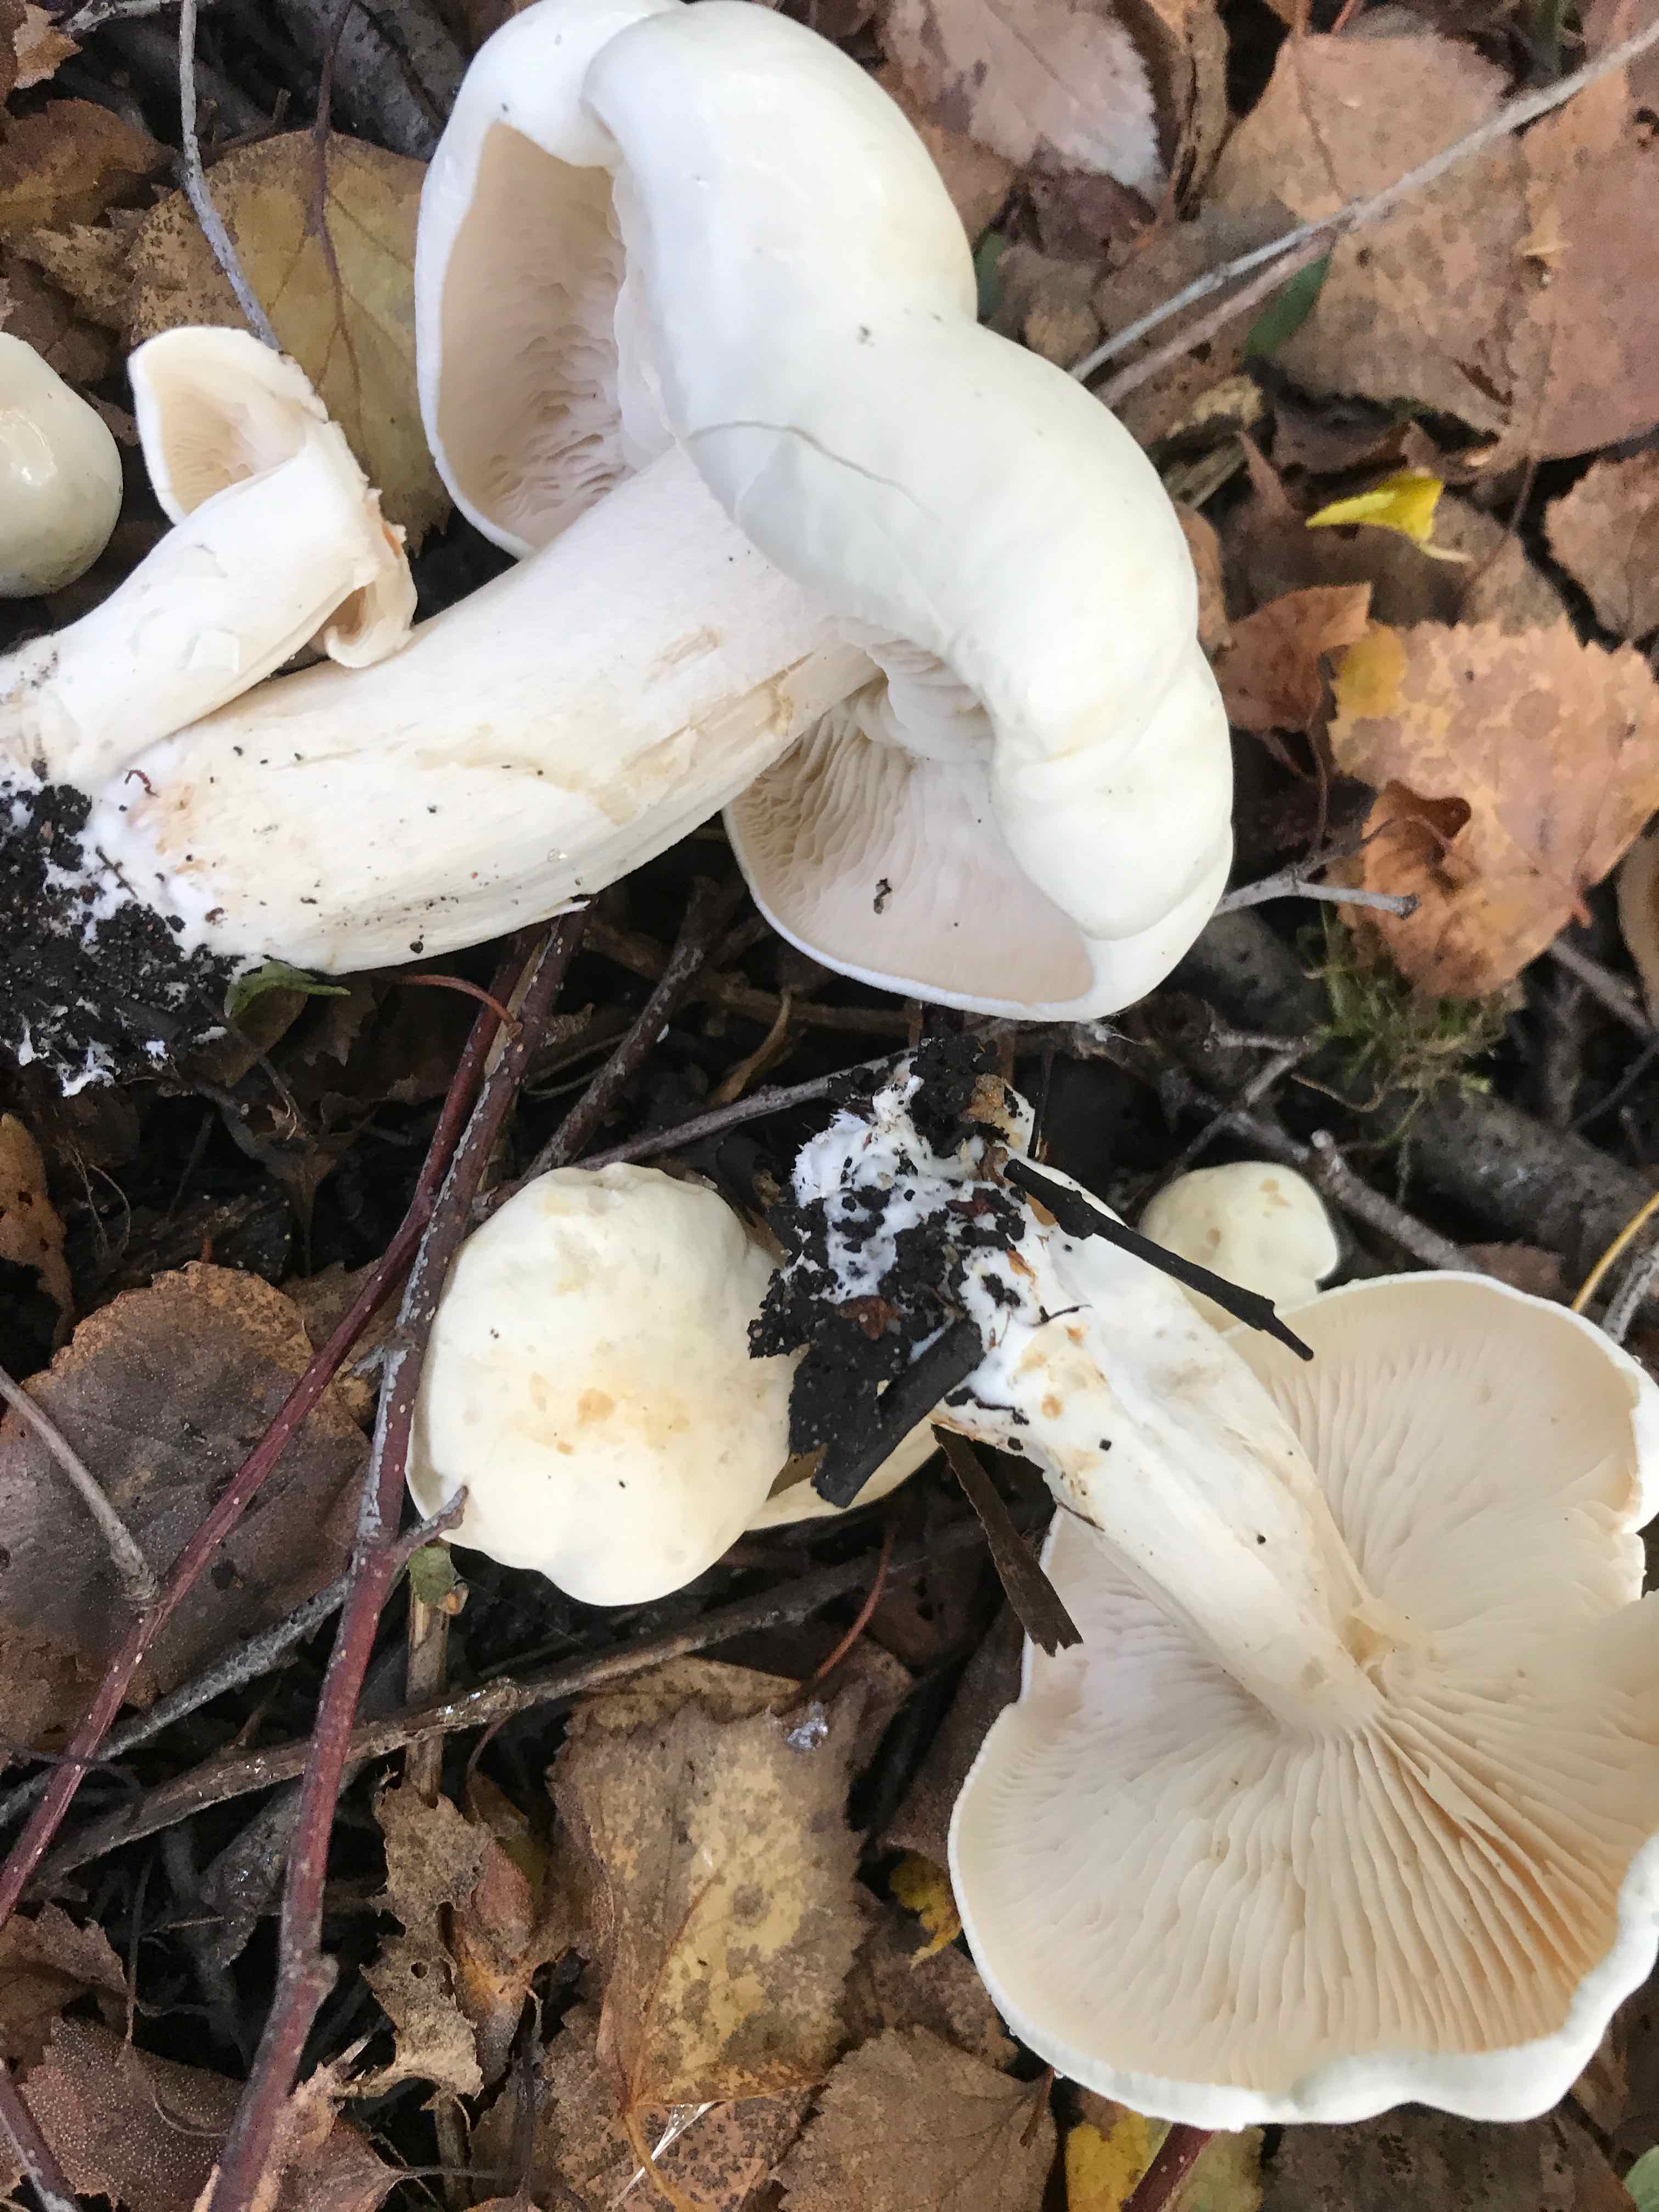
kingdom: Fungi
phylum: Basidiomycota
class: Agaricomycetes
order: Agaricales
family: Tricholomataceae
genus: Tricholoma
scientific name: Tricholoma stiparophyllum
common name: hvid ridderhat
